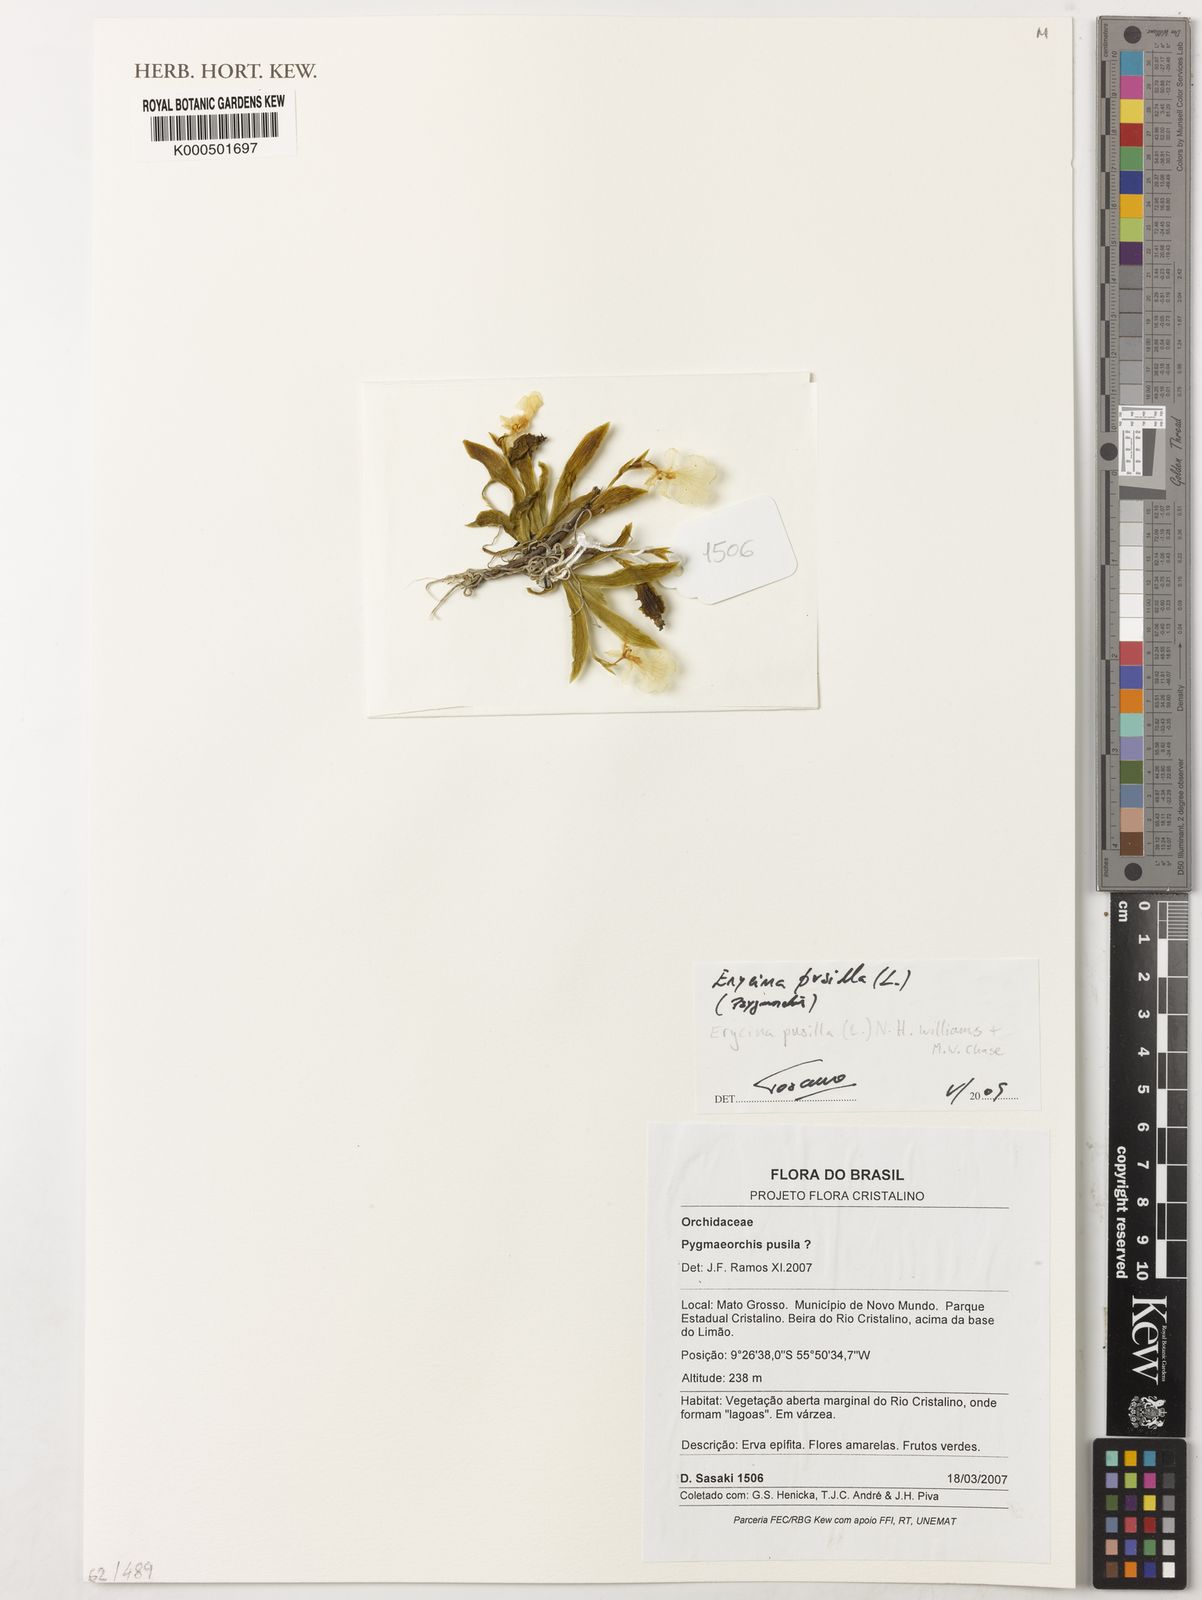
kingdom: Plantae
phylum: Tracheophyta
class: Liliopsida
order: Asparagales
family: Orchidaceae
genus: Erycina
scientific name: Erycina pusilla
